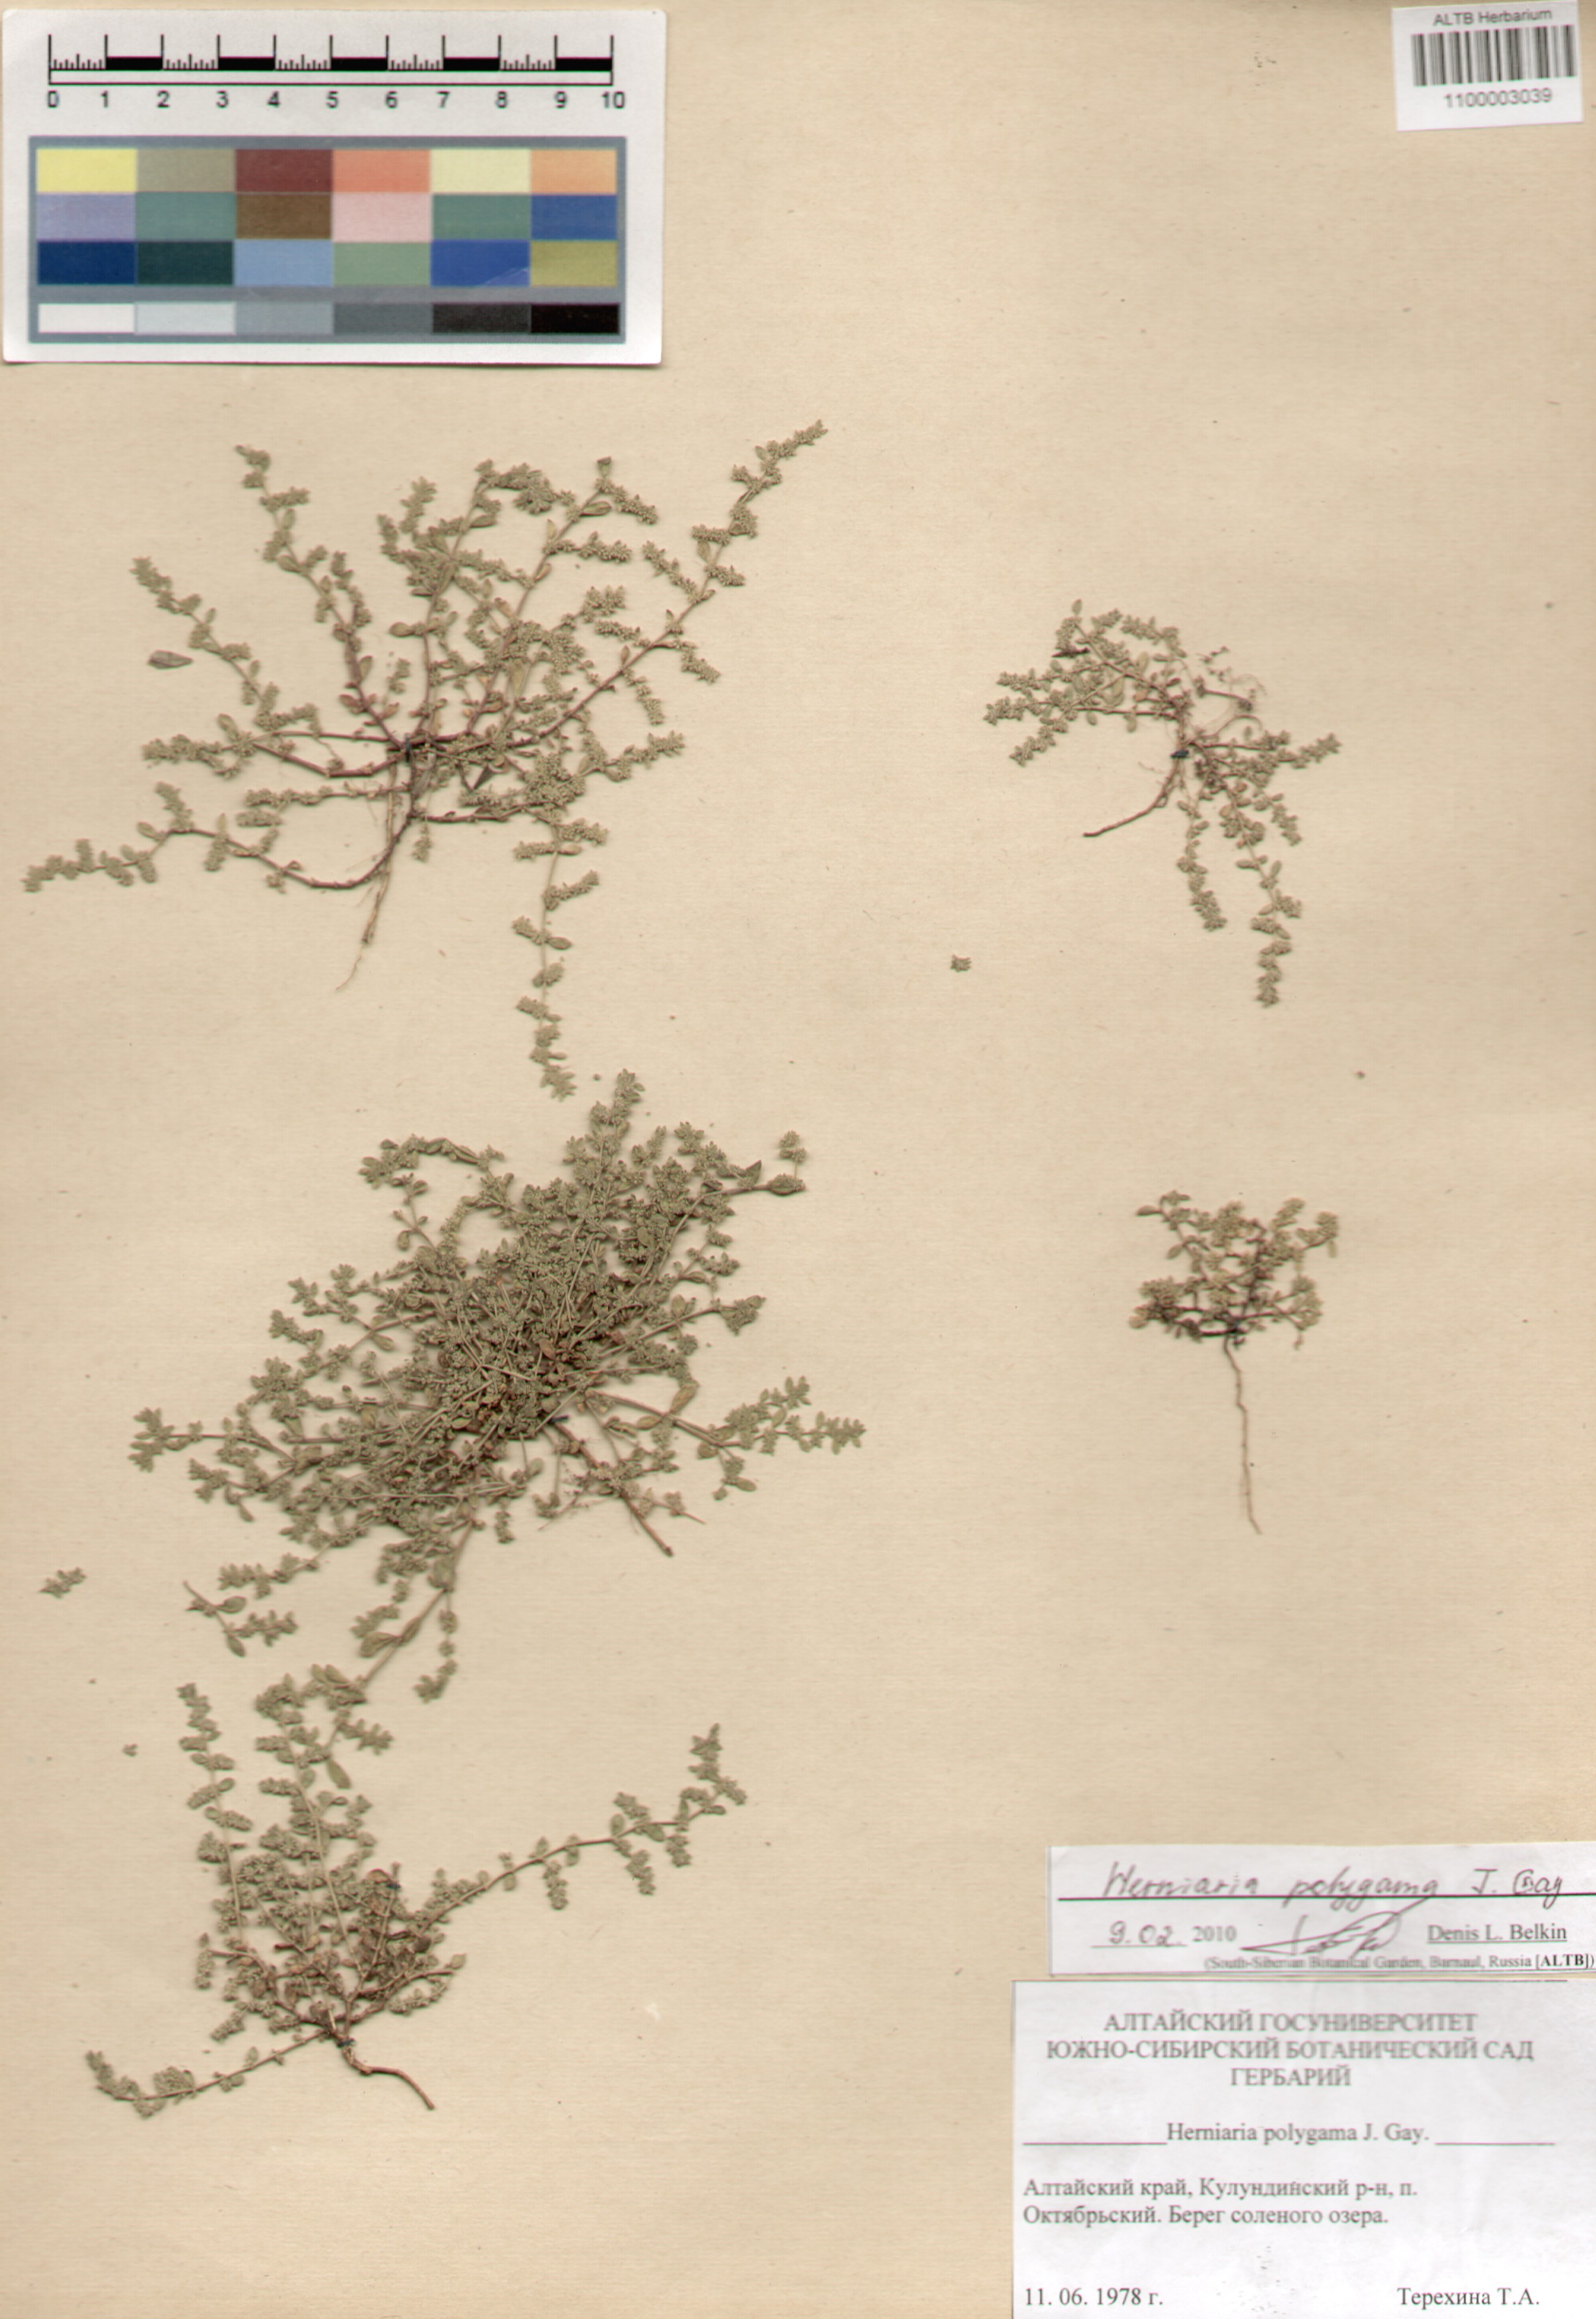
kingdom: Plantae
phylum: Tracheophyta
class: Magnoliopsida
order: Caryophyllales
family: Caryophyllaceae
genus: Herniaria
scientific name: Herniaria polygama
